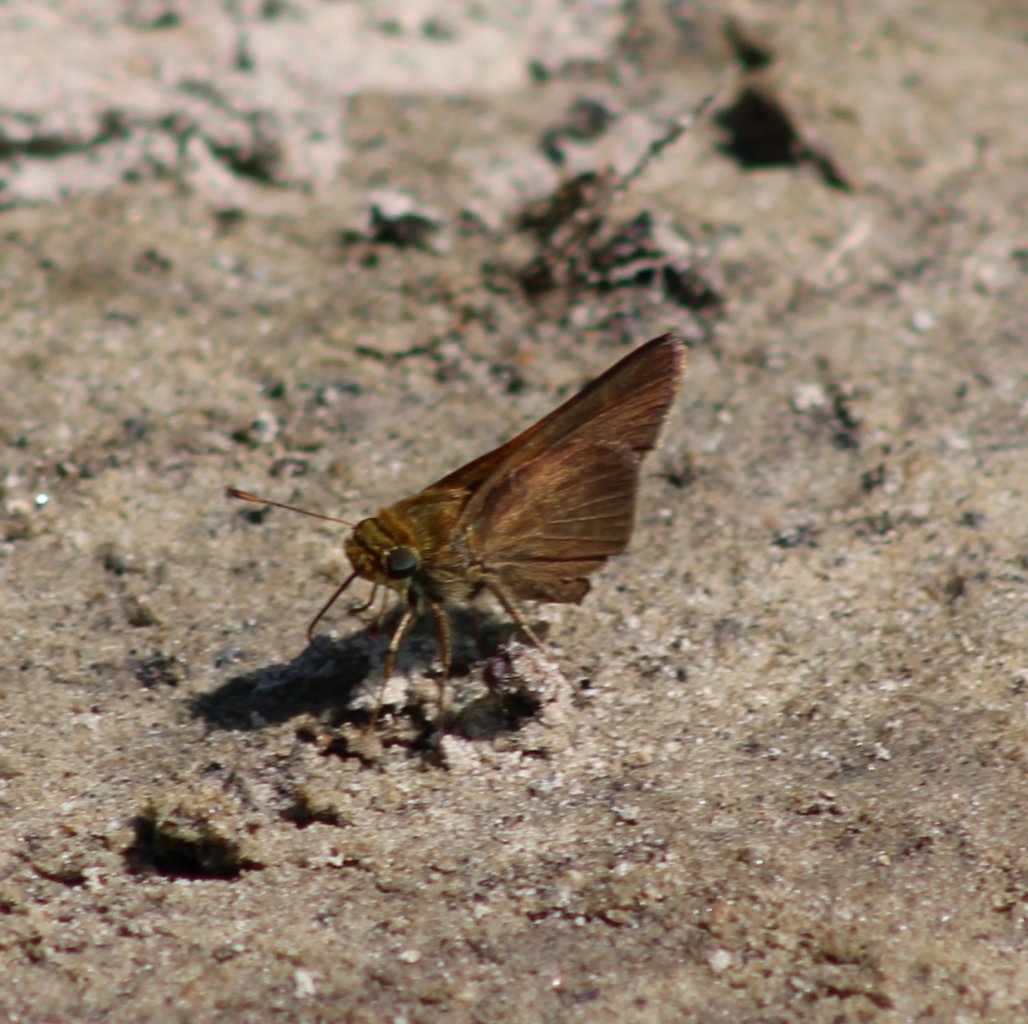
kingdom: Animalia
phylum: Arthropoda
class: Insecta
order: Lepidoptera
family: Hesperiidae
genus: Euphyes
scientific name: Euphyes vestris
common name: Dun Skipper
